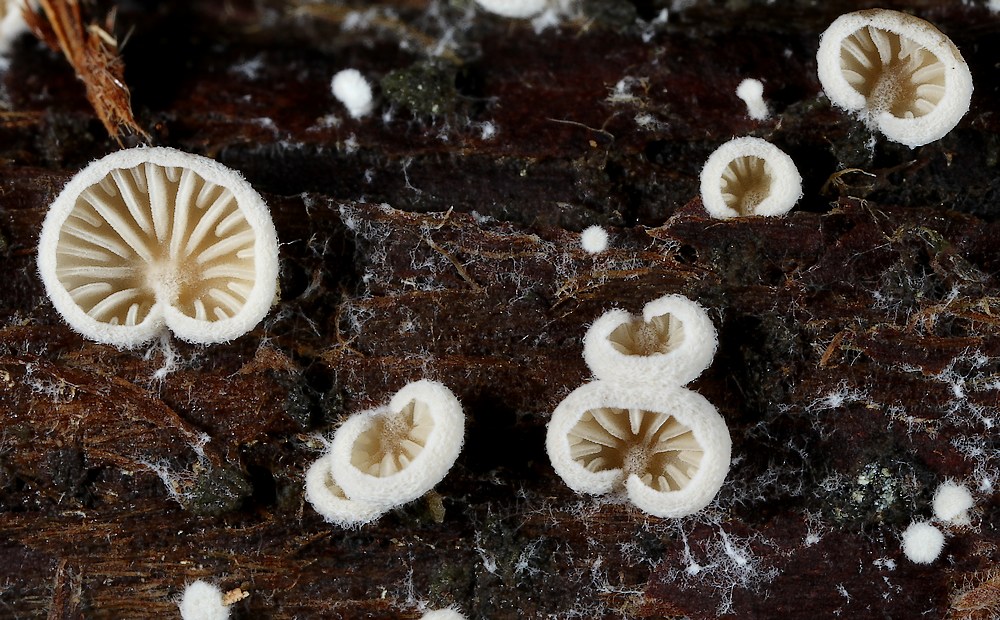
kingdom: Fungi
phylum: Basidiomycota
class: Agaricomycetes
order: Agaricales
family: Entolomataceae
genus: Clitopilus
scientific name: Clitopilus hobsonii
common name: Miller's oysterling
